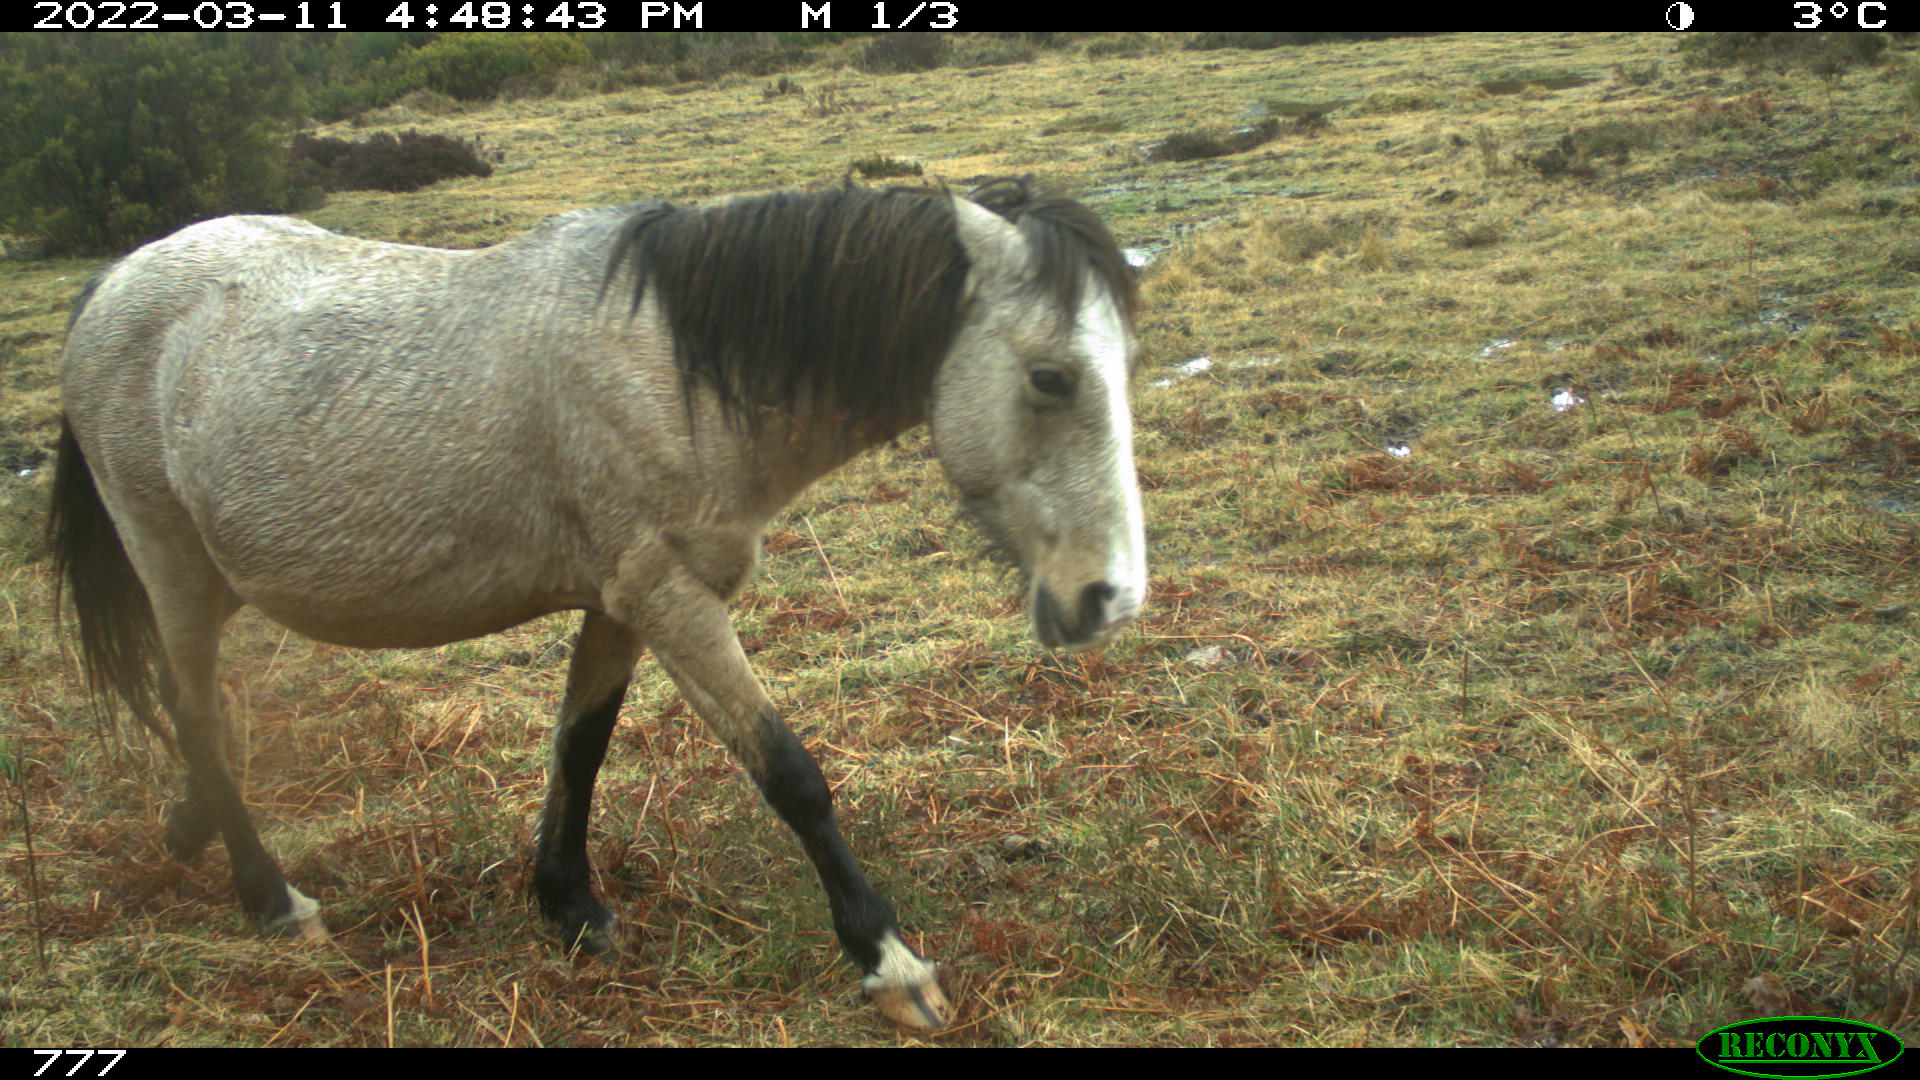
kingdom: Animalia
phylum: Chordata
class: Mammalia
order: Perissodactyla
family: Equidae
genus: Equus
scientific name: Equus caballus
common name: Horse
